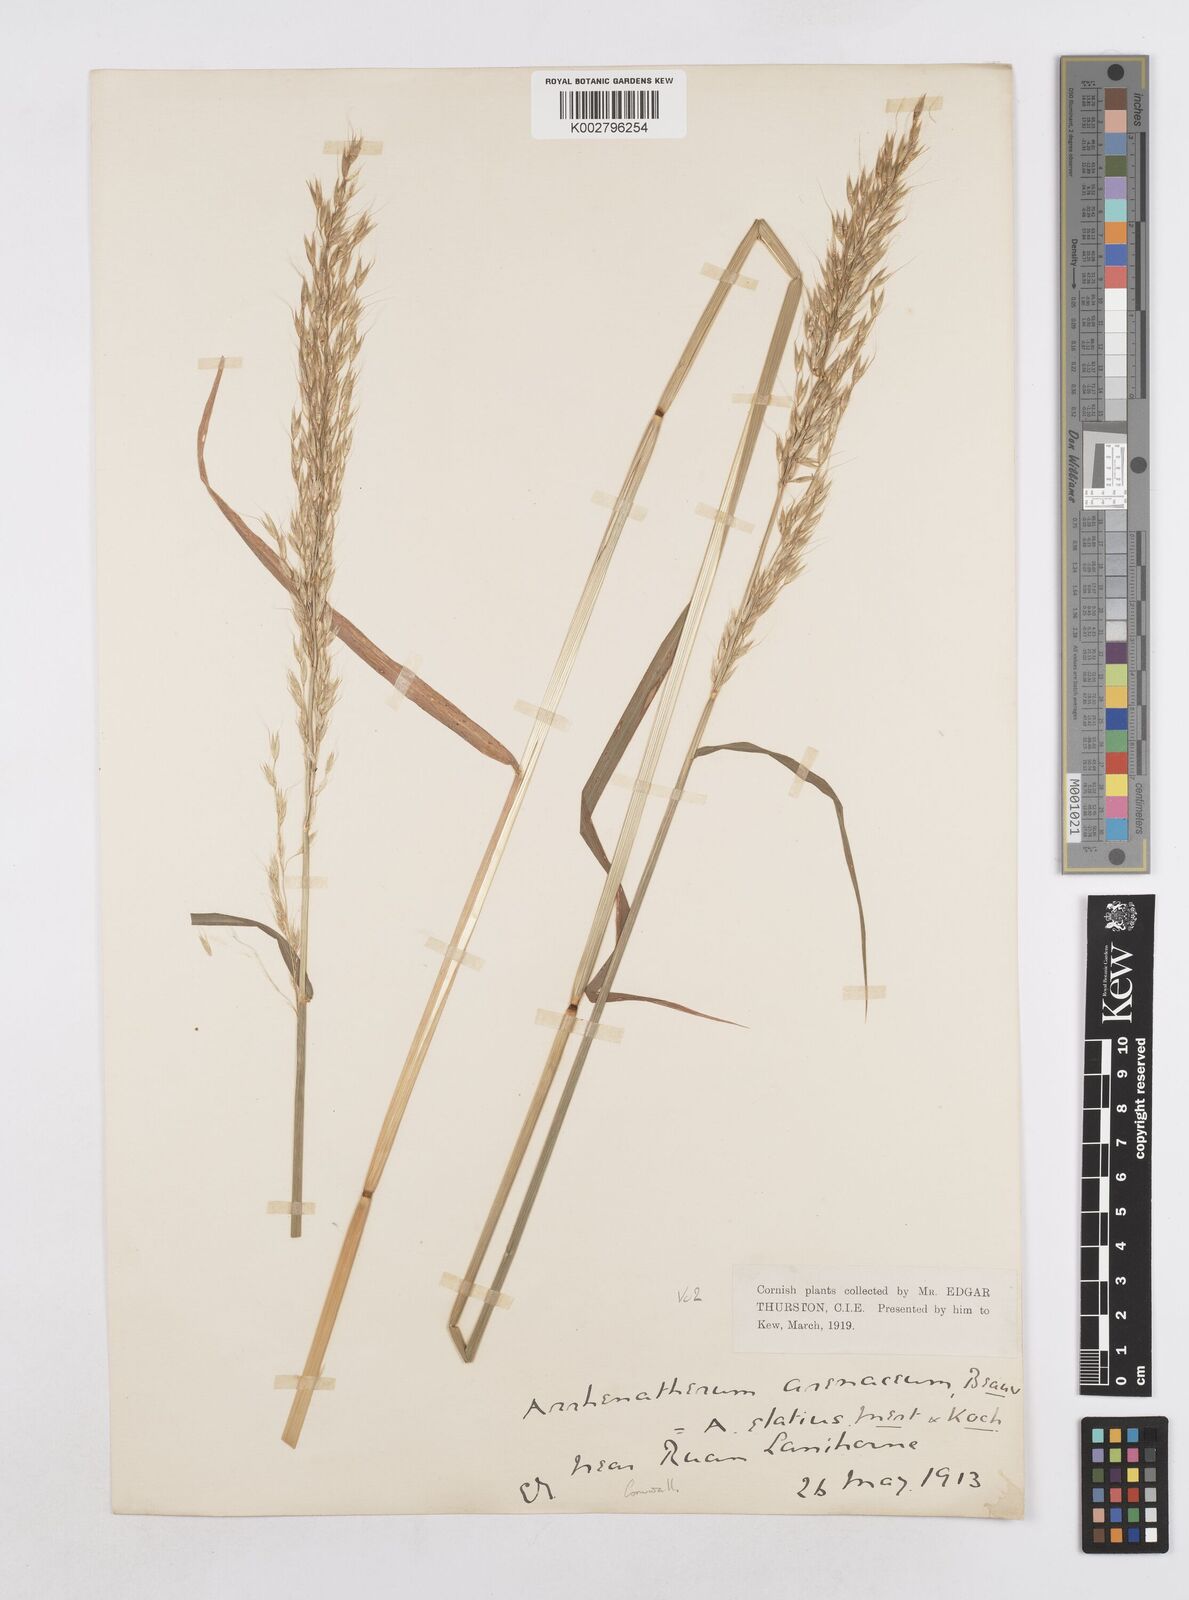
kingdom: Plantae
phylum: Tracheophyta
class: Liliopsida
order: Poales
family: Poaceae
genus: Arrhenatherum
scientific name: Arrhenatherum elatius
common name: Tall oatgrass
